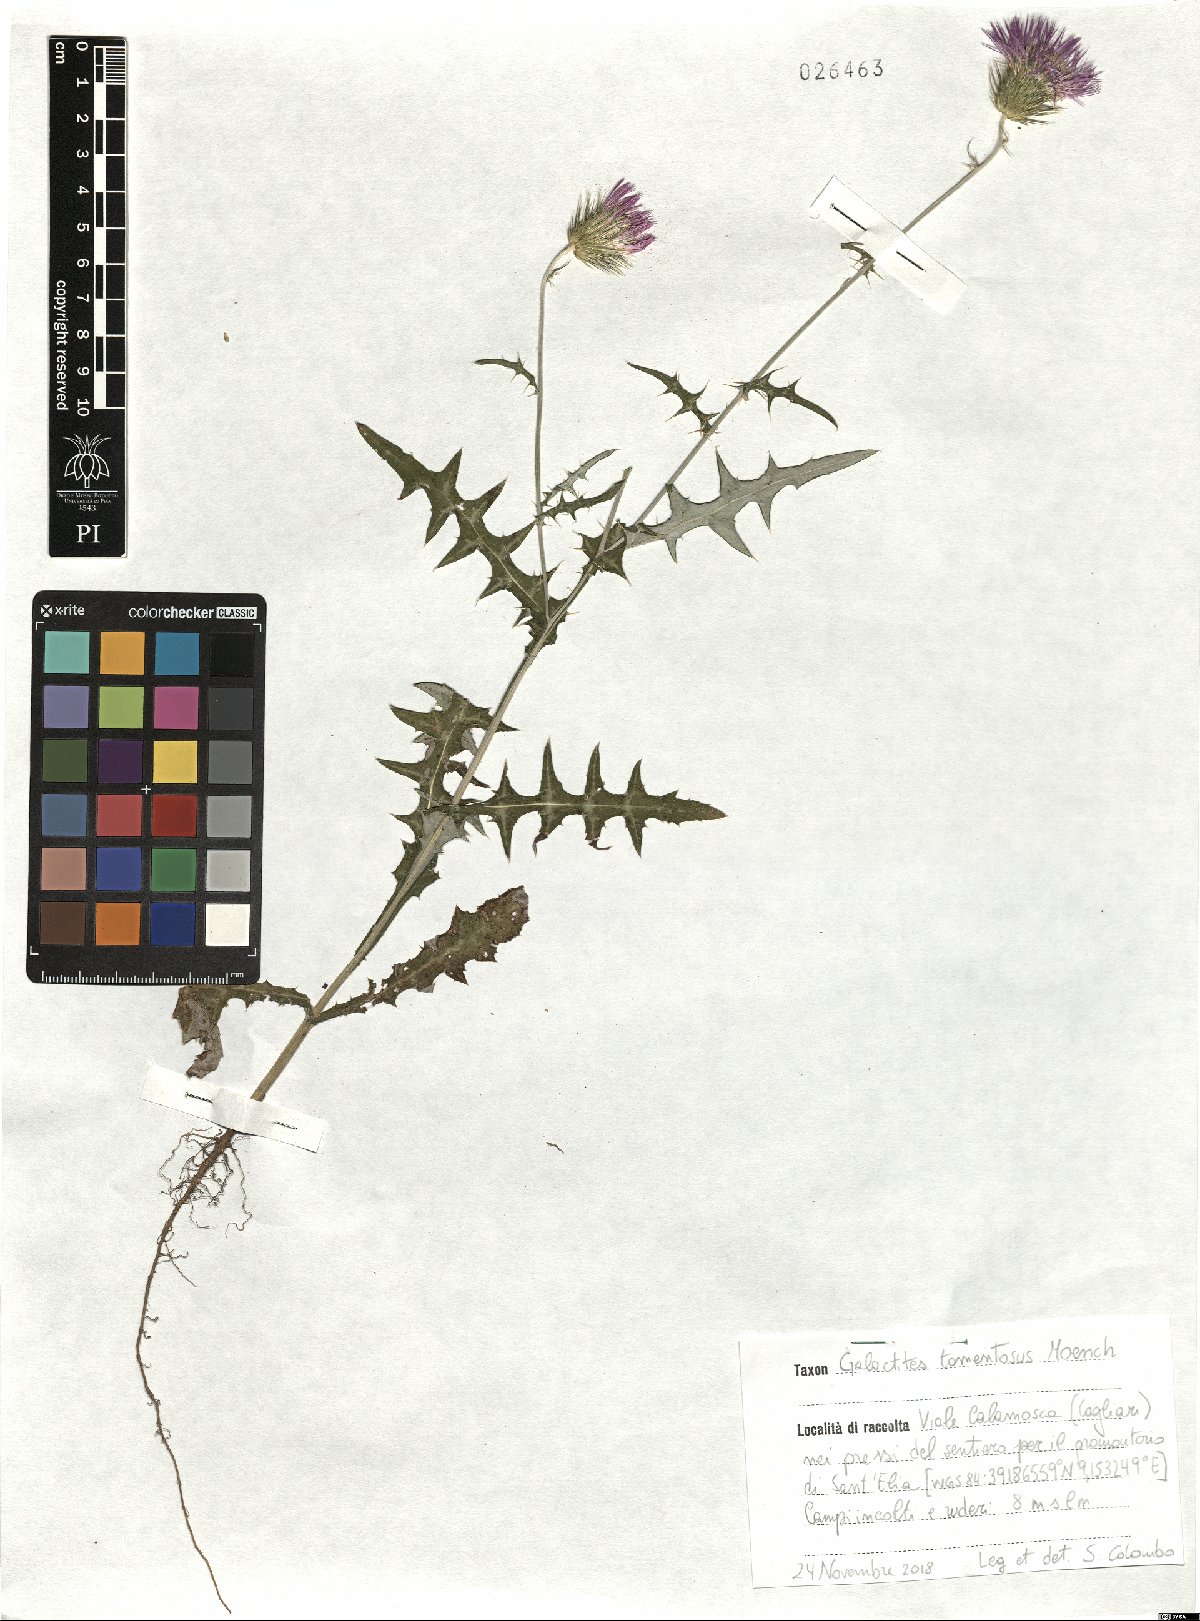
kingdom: Plantae
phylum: Tracheophyta
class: Magnoliopsida
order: Asterales
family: Asteraceae
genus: Galactites
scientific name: Galactites tomentosa
